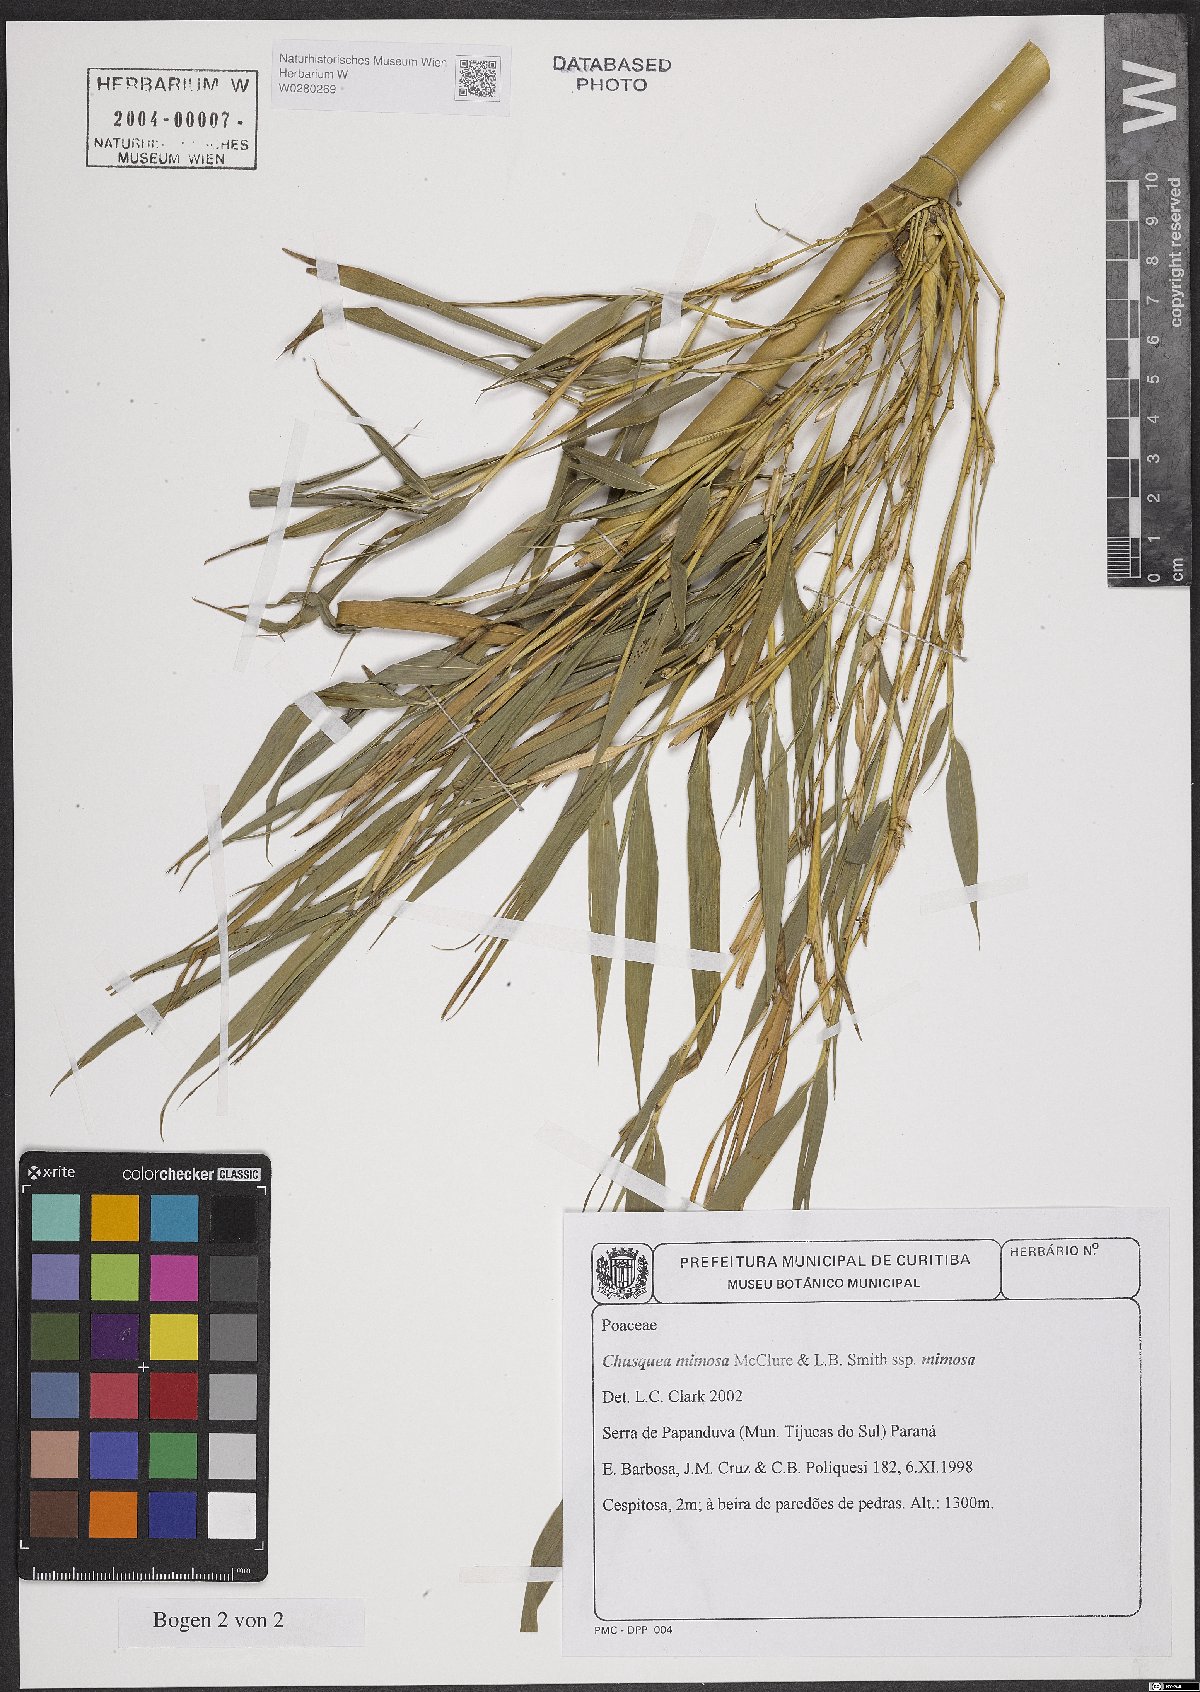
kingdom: Plantae
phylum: Tracheophyta
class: Liliopsida
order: Poales
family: Poaceae
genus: Chusquea
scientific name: Chusquea mimosa
